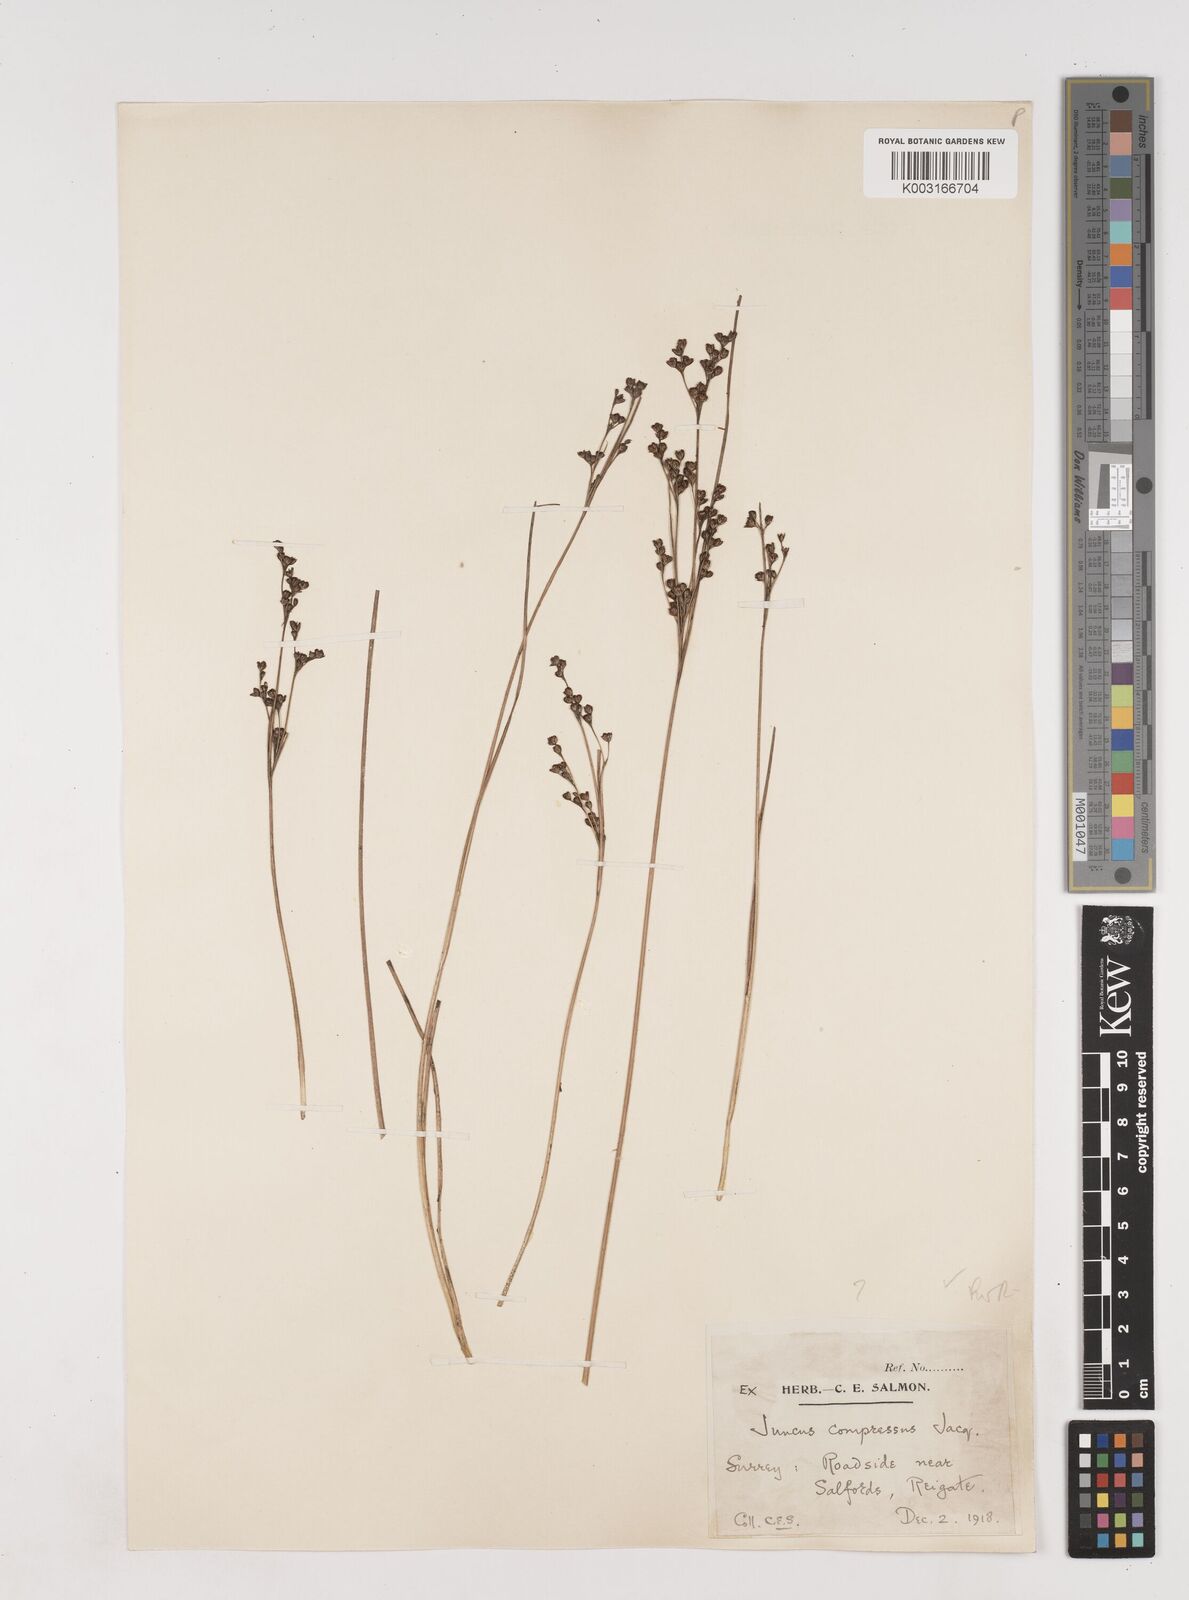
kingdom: Plantae
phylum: Tracheophyta
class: Liliopsida
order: Poales
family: Juncaceae
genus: Juncus
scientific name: Juncus compressus
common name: Round-fruited rush
